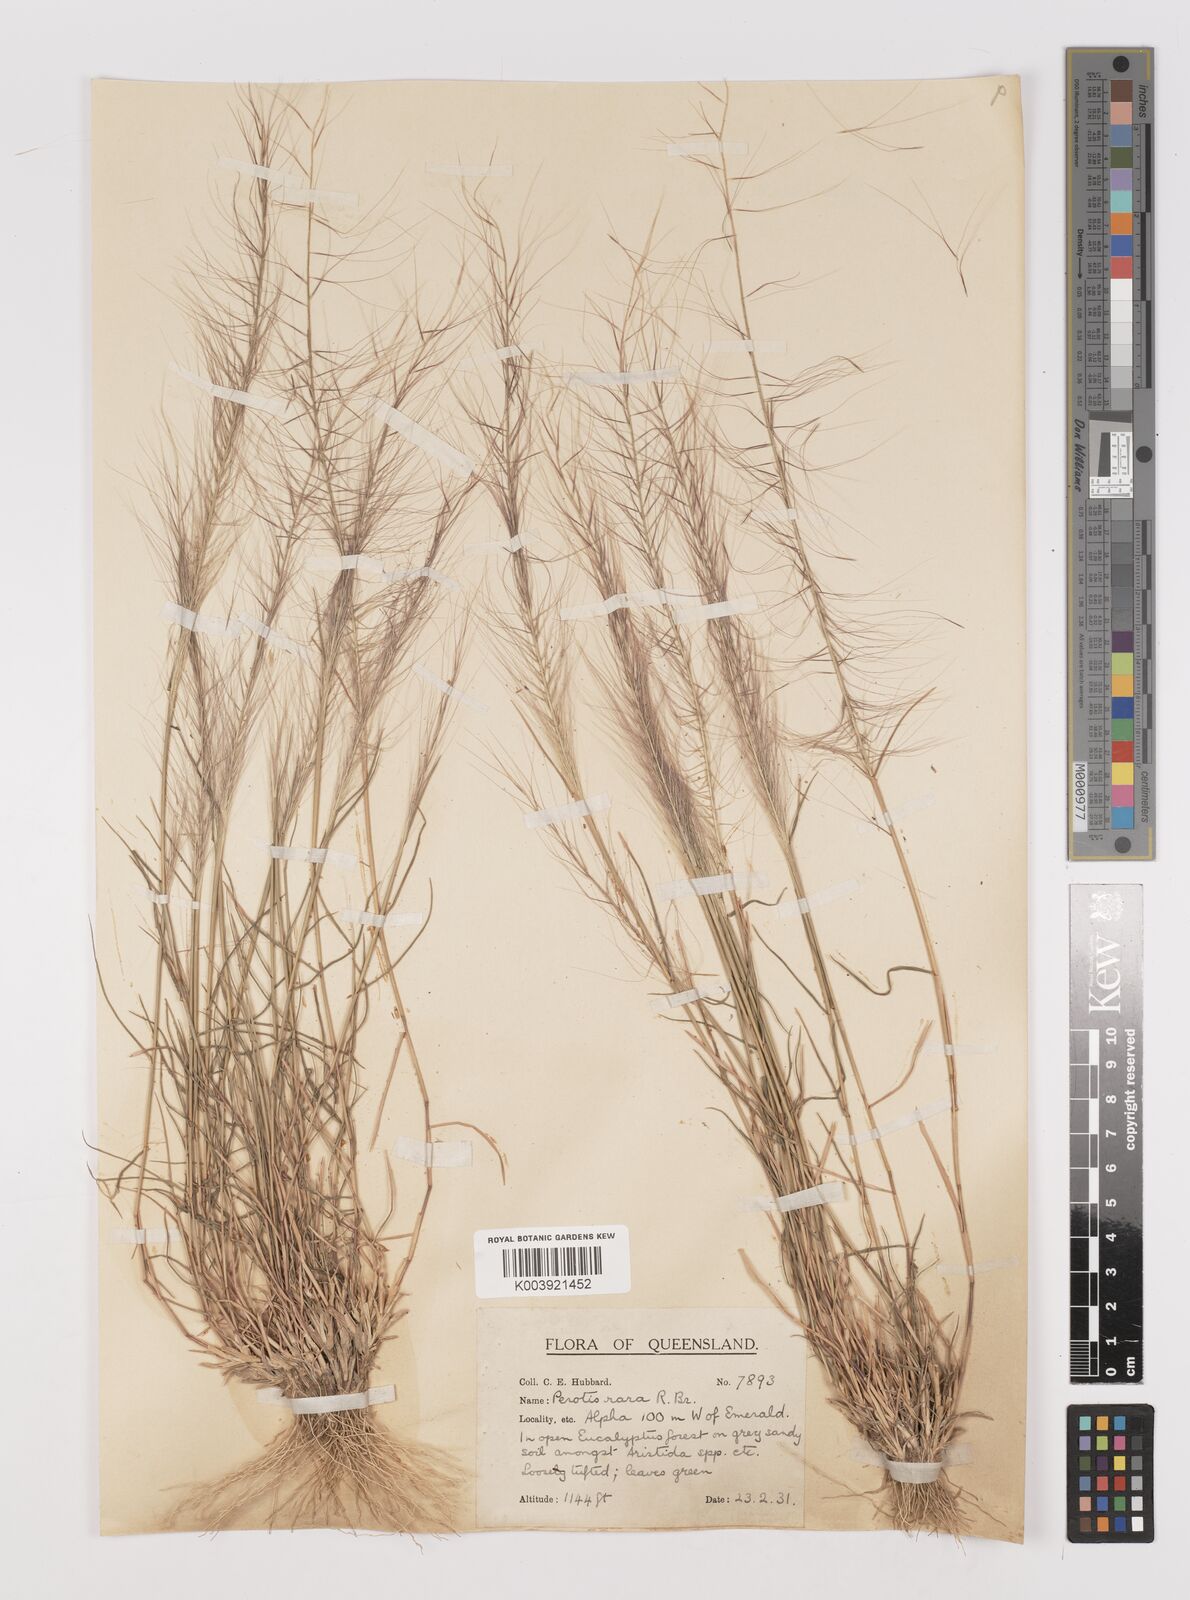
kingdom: Plantae
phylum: Tracheophyta
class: Liliopsida
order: Poales
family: Poaceae
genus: Perotis
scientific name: Perotis rara
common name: Comet grass
